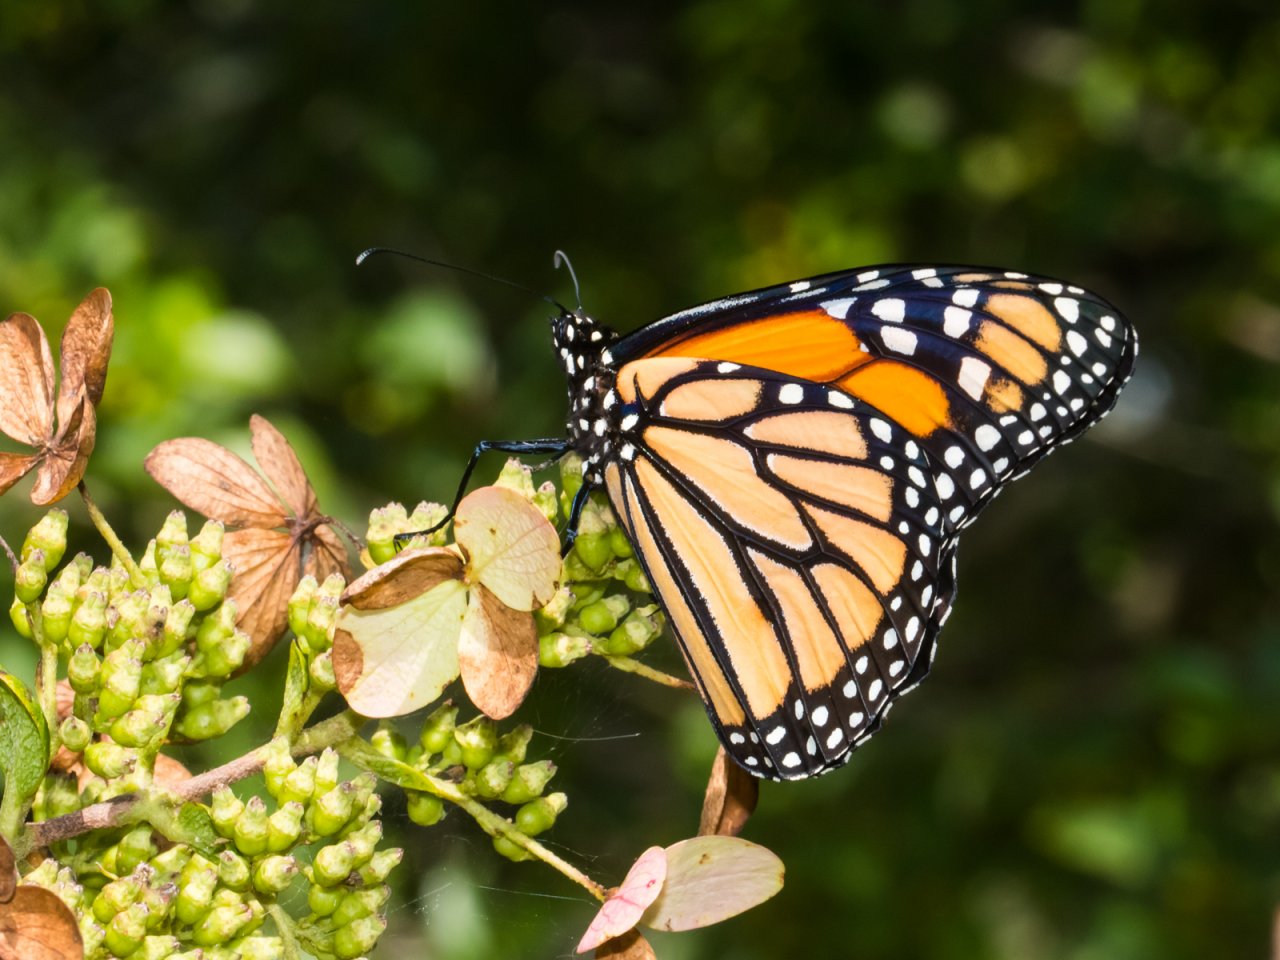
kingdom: Animalia
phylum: Arthropoda
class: Insecta
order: Lepidoptera
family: Nymphalidae
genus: Danaus
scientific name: Danaus plexippus
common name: Monarch
